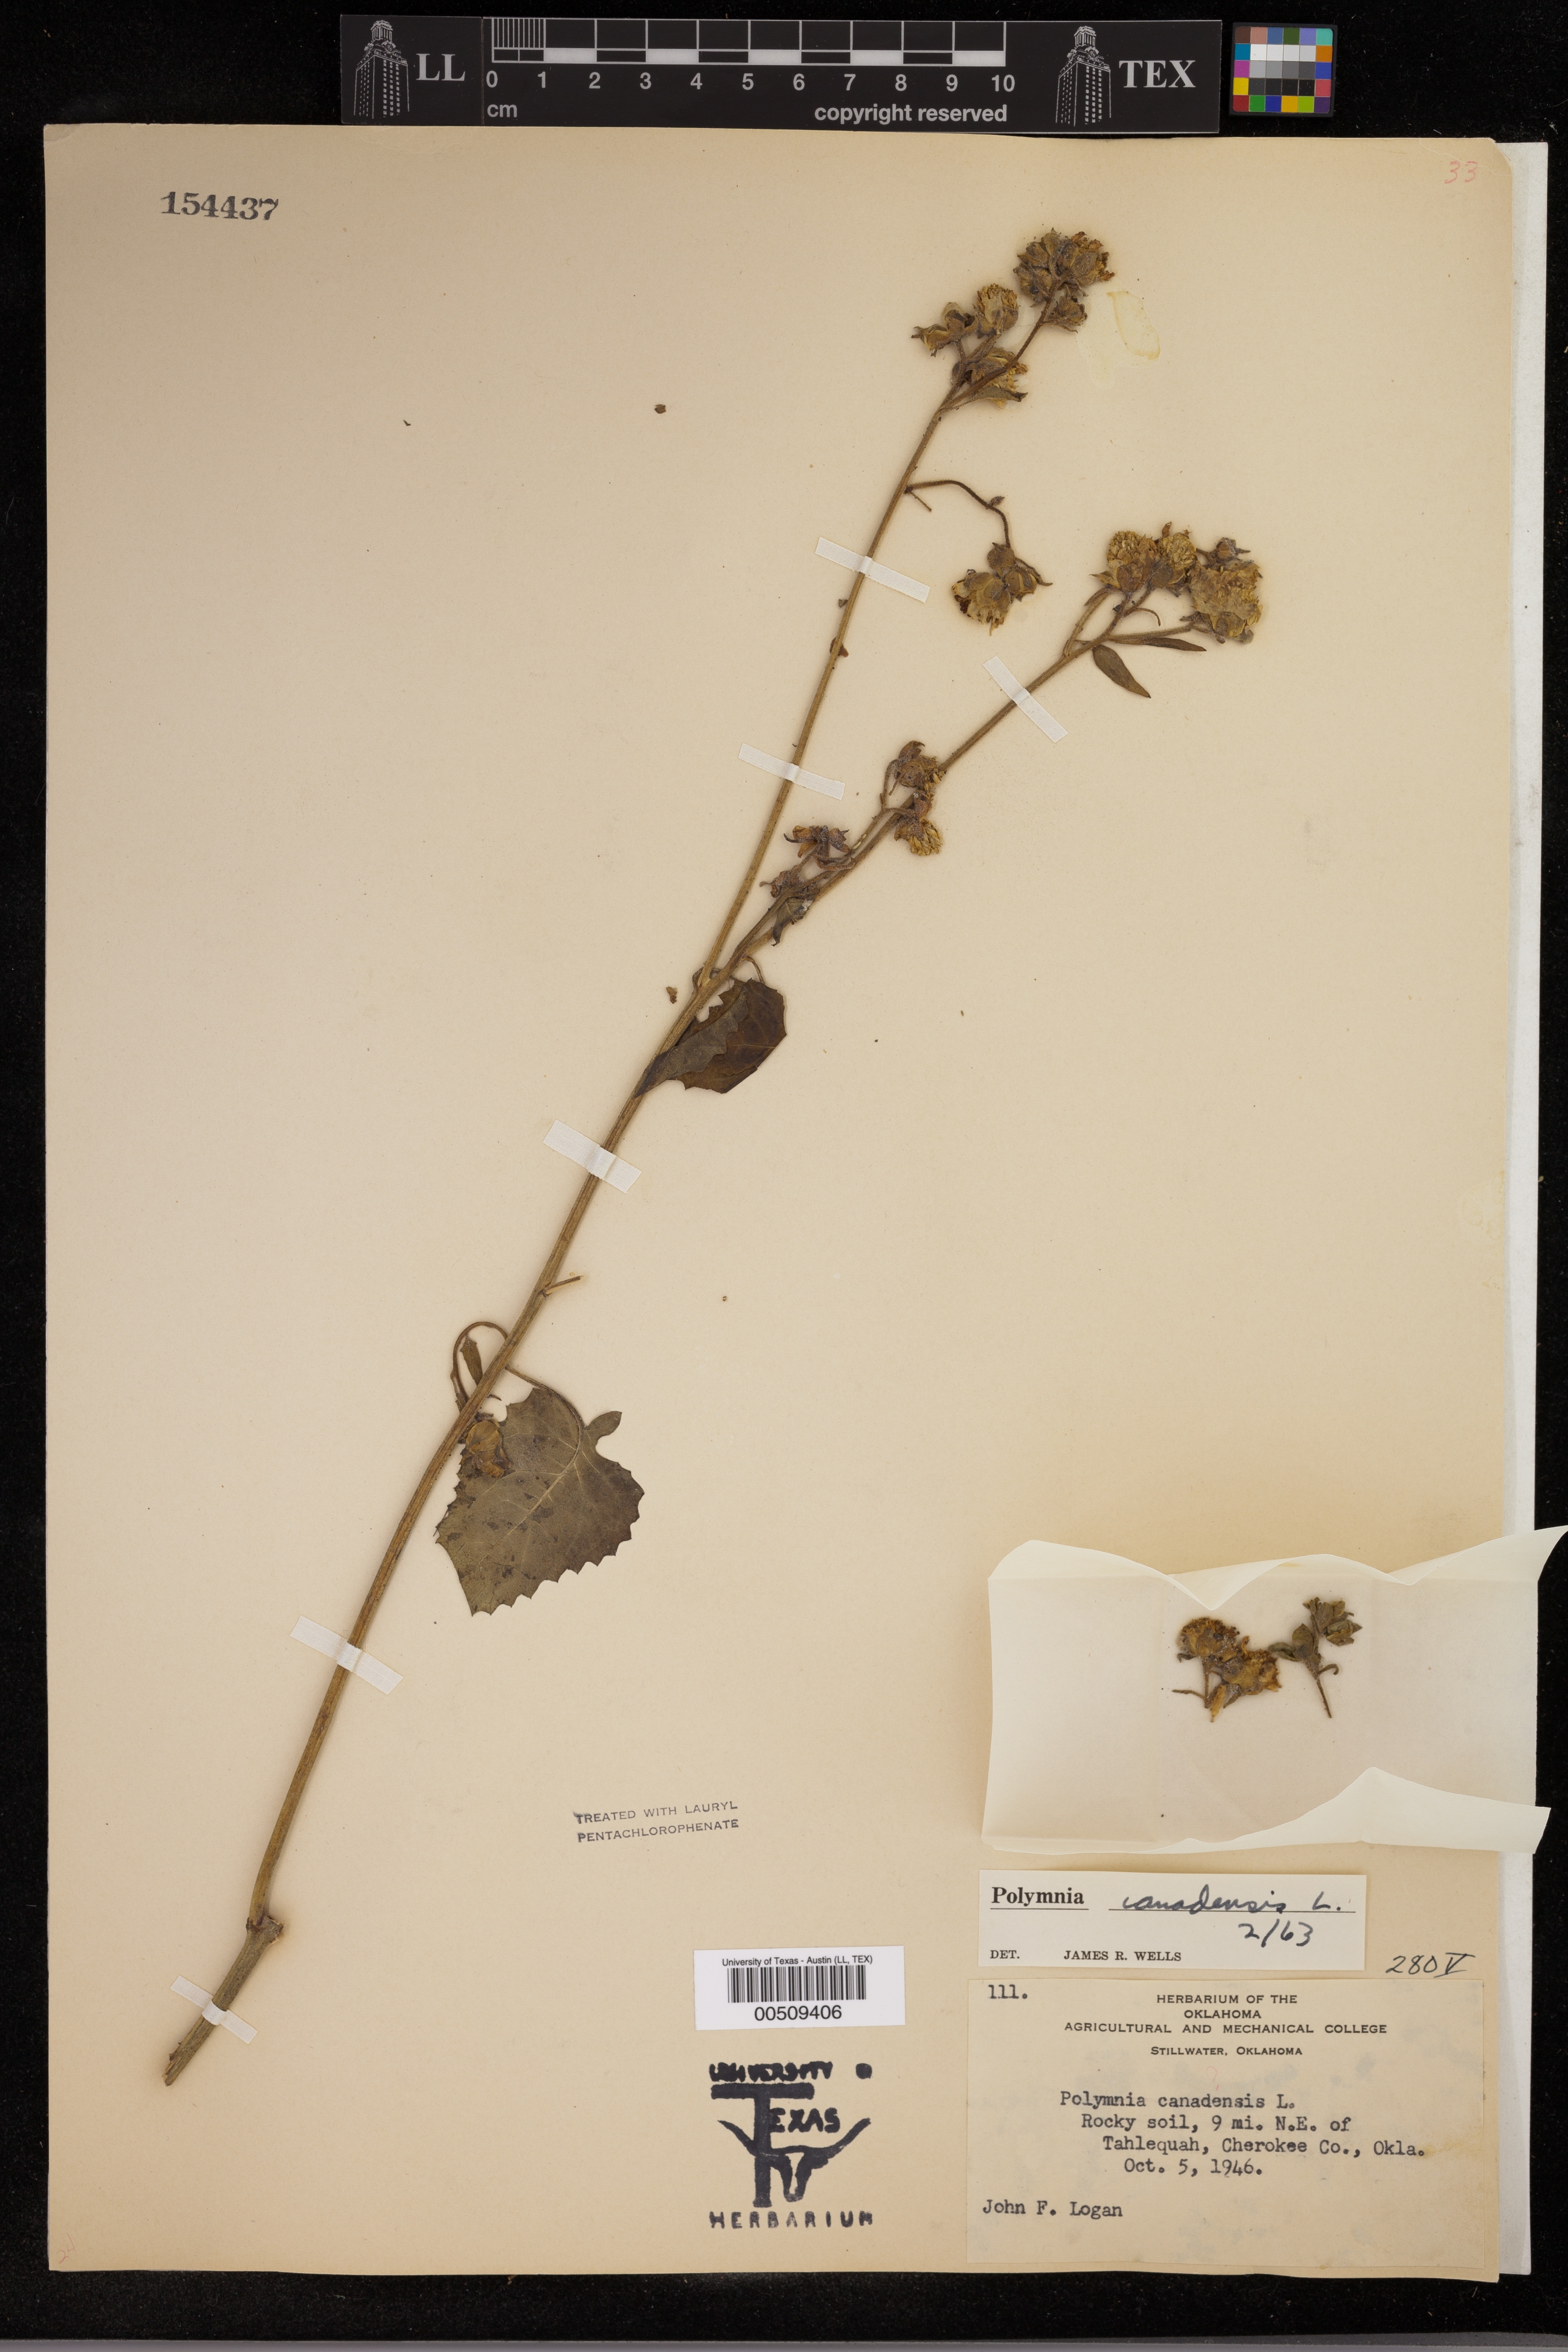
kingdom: Plantae
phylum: Tracheophyta
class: Magnoliopsida
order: Asterales
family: Asteraceae
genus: Polymnia
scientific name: Polymnia canadensis
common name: Pale-flowered leafcup
